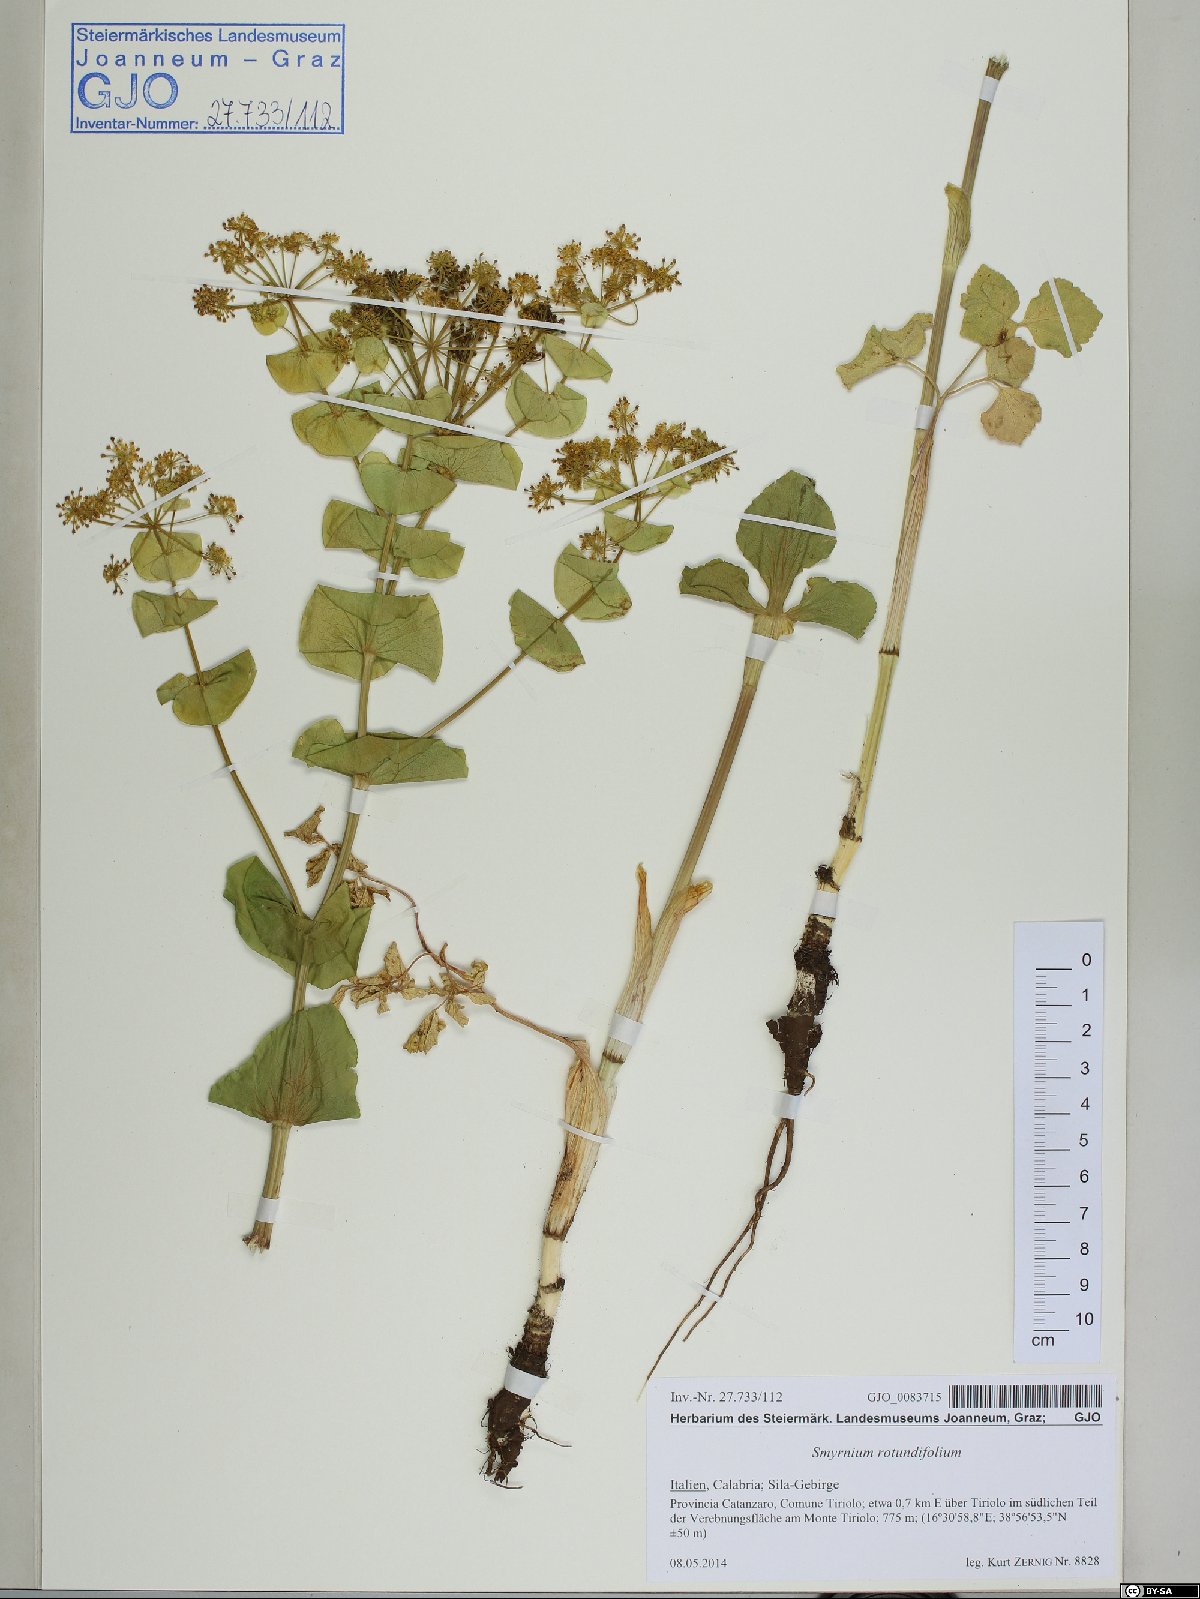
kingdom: Plantae
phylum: Tracheophyta
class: Magnoliopsida
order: Apiales
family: Apiaceae
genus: Smyrnium
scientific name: Smyrnium perfoliatum
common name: Perfoliate alexanders
